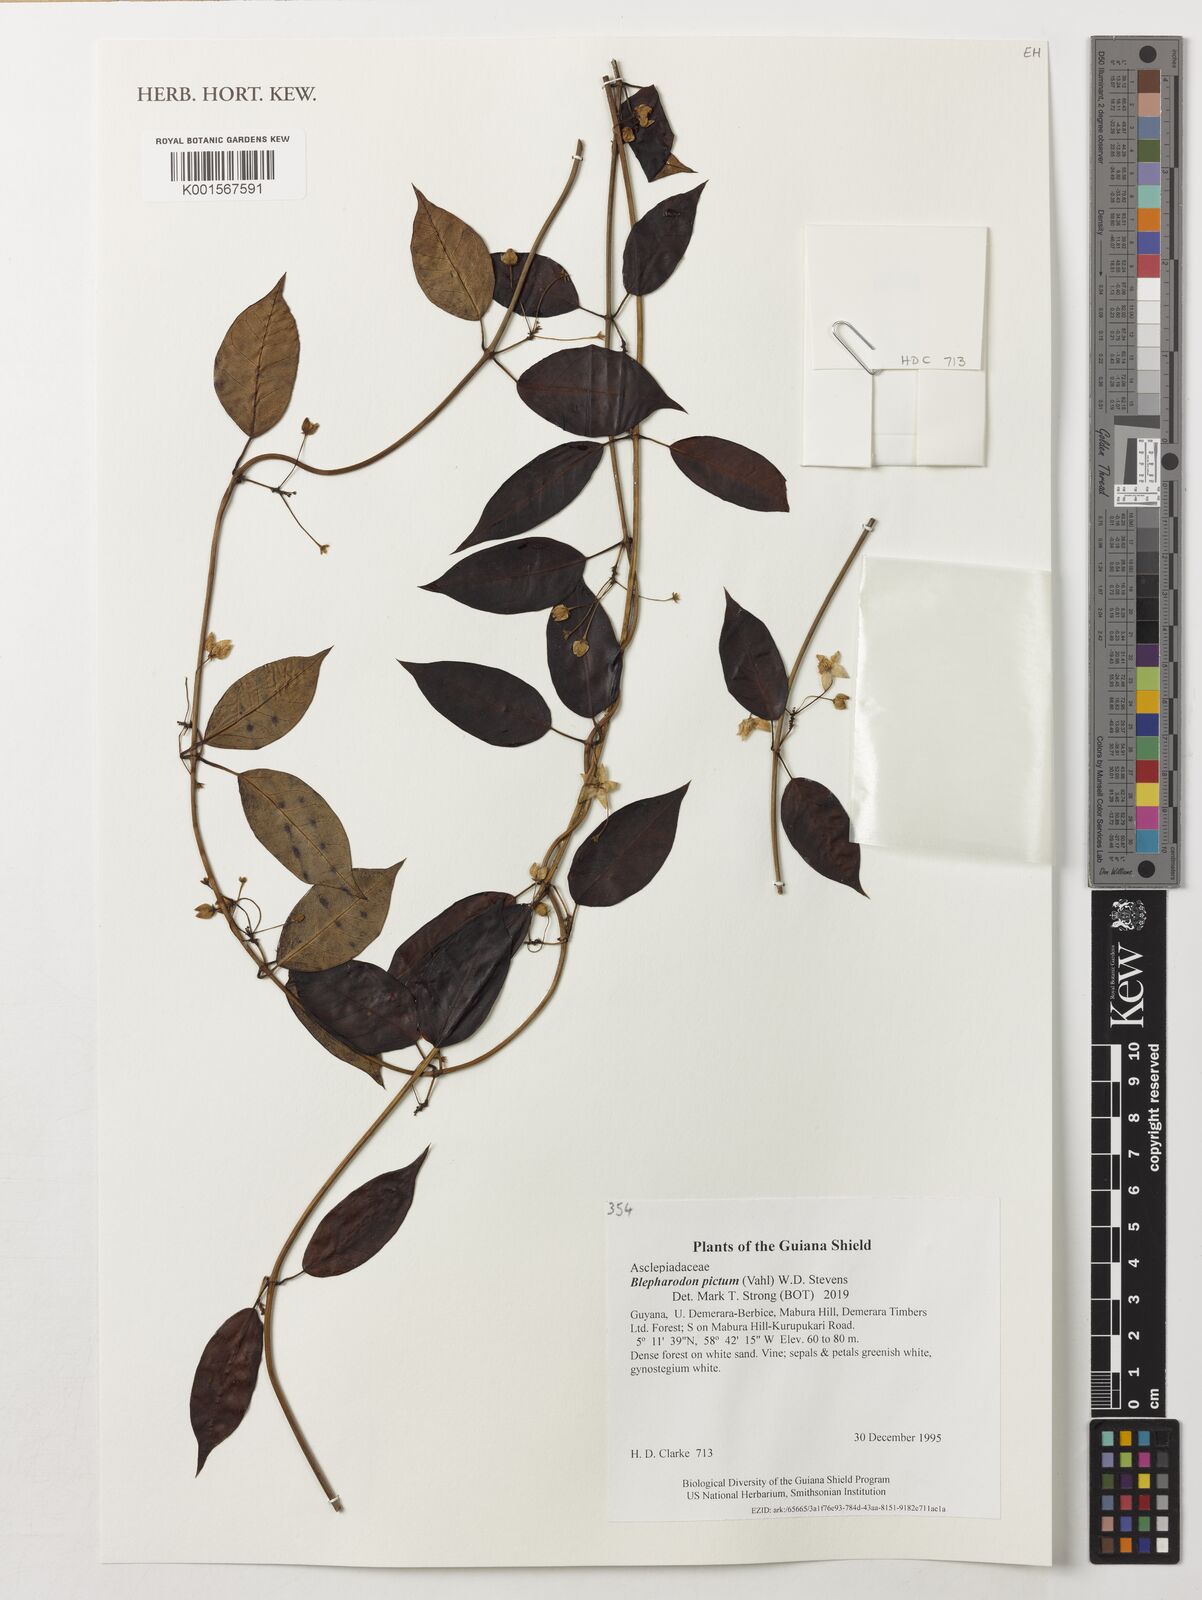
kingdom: Plantae
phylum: Tracheophyta
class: Magnoliopsida
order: Gentianales
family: Apocynaceae
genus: Blepharodon
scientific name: Blepharodon pictum
